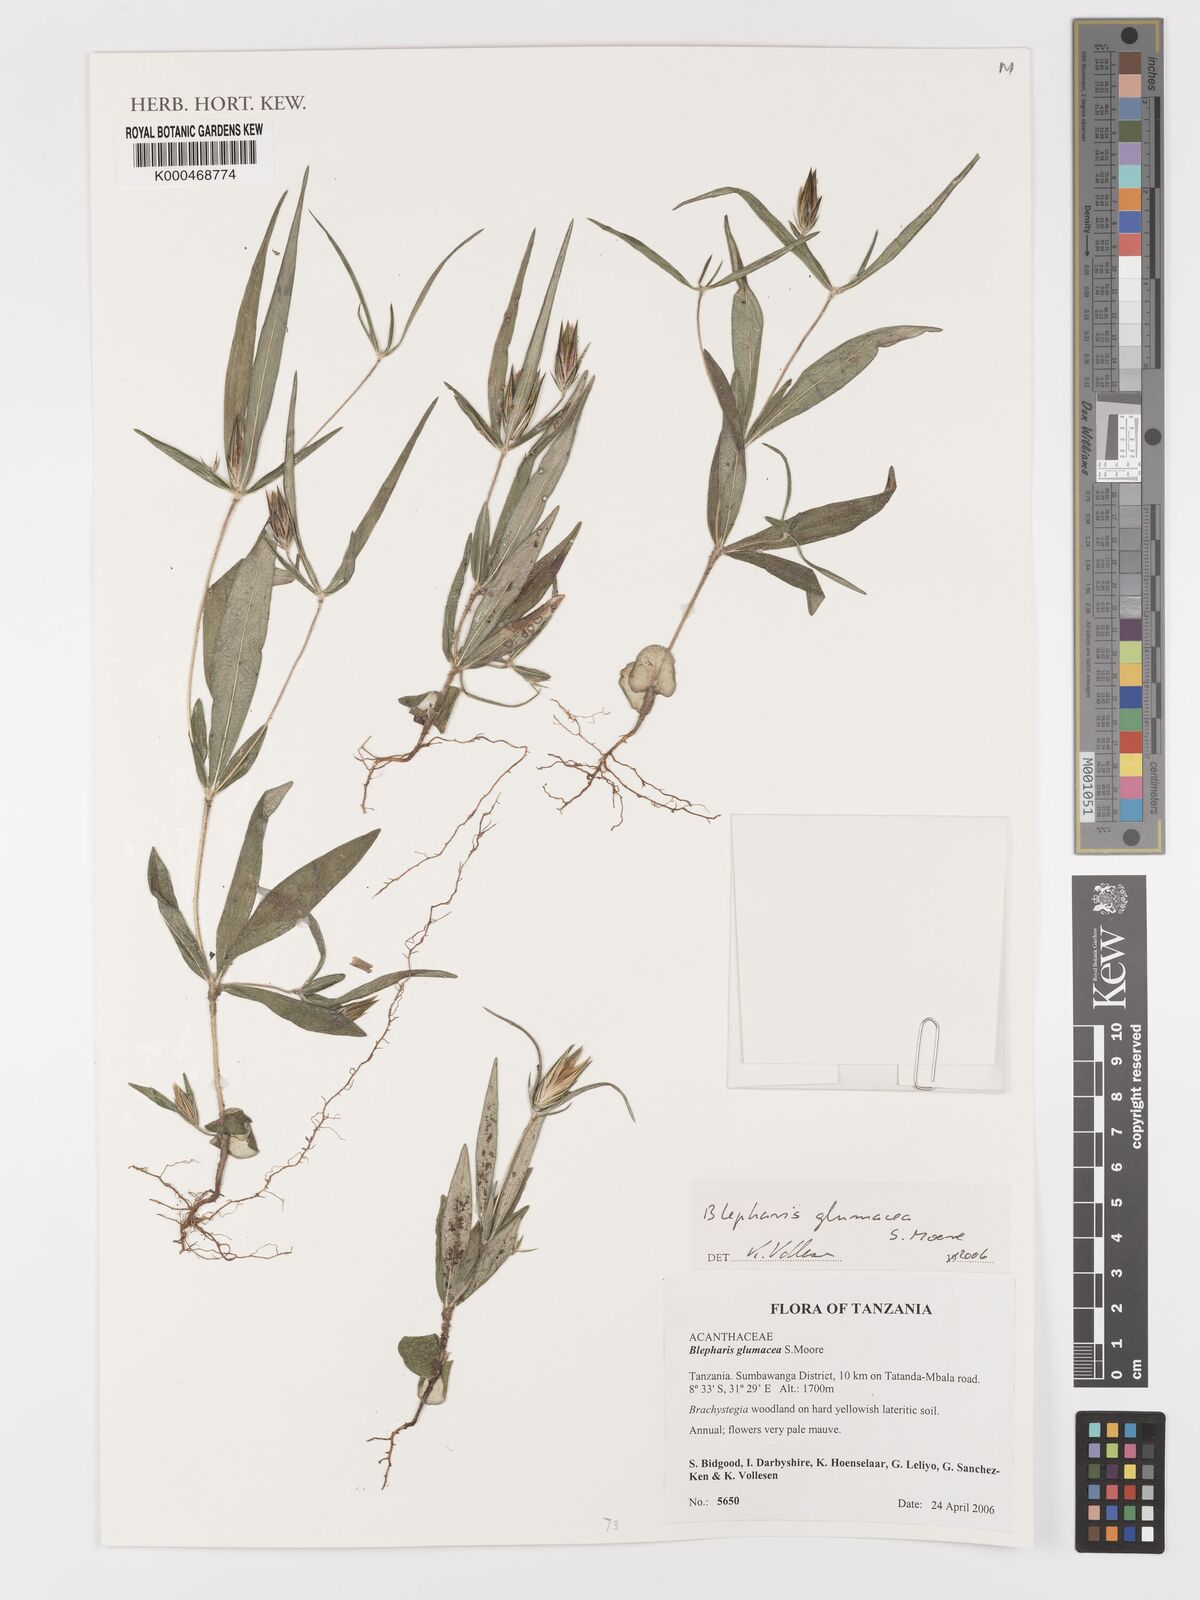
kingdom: Plantae
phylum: Tracheophyta
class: Magnoliopsida
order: Lamiales
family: Acanthaceae
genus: Blepharis
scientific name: Blepharis glumacea
